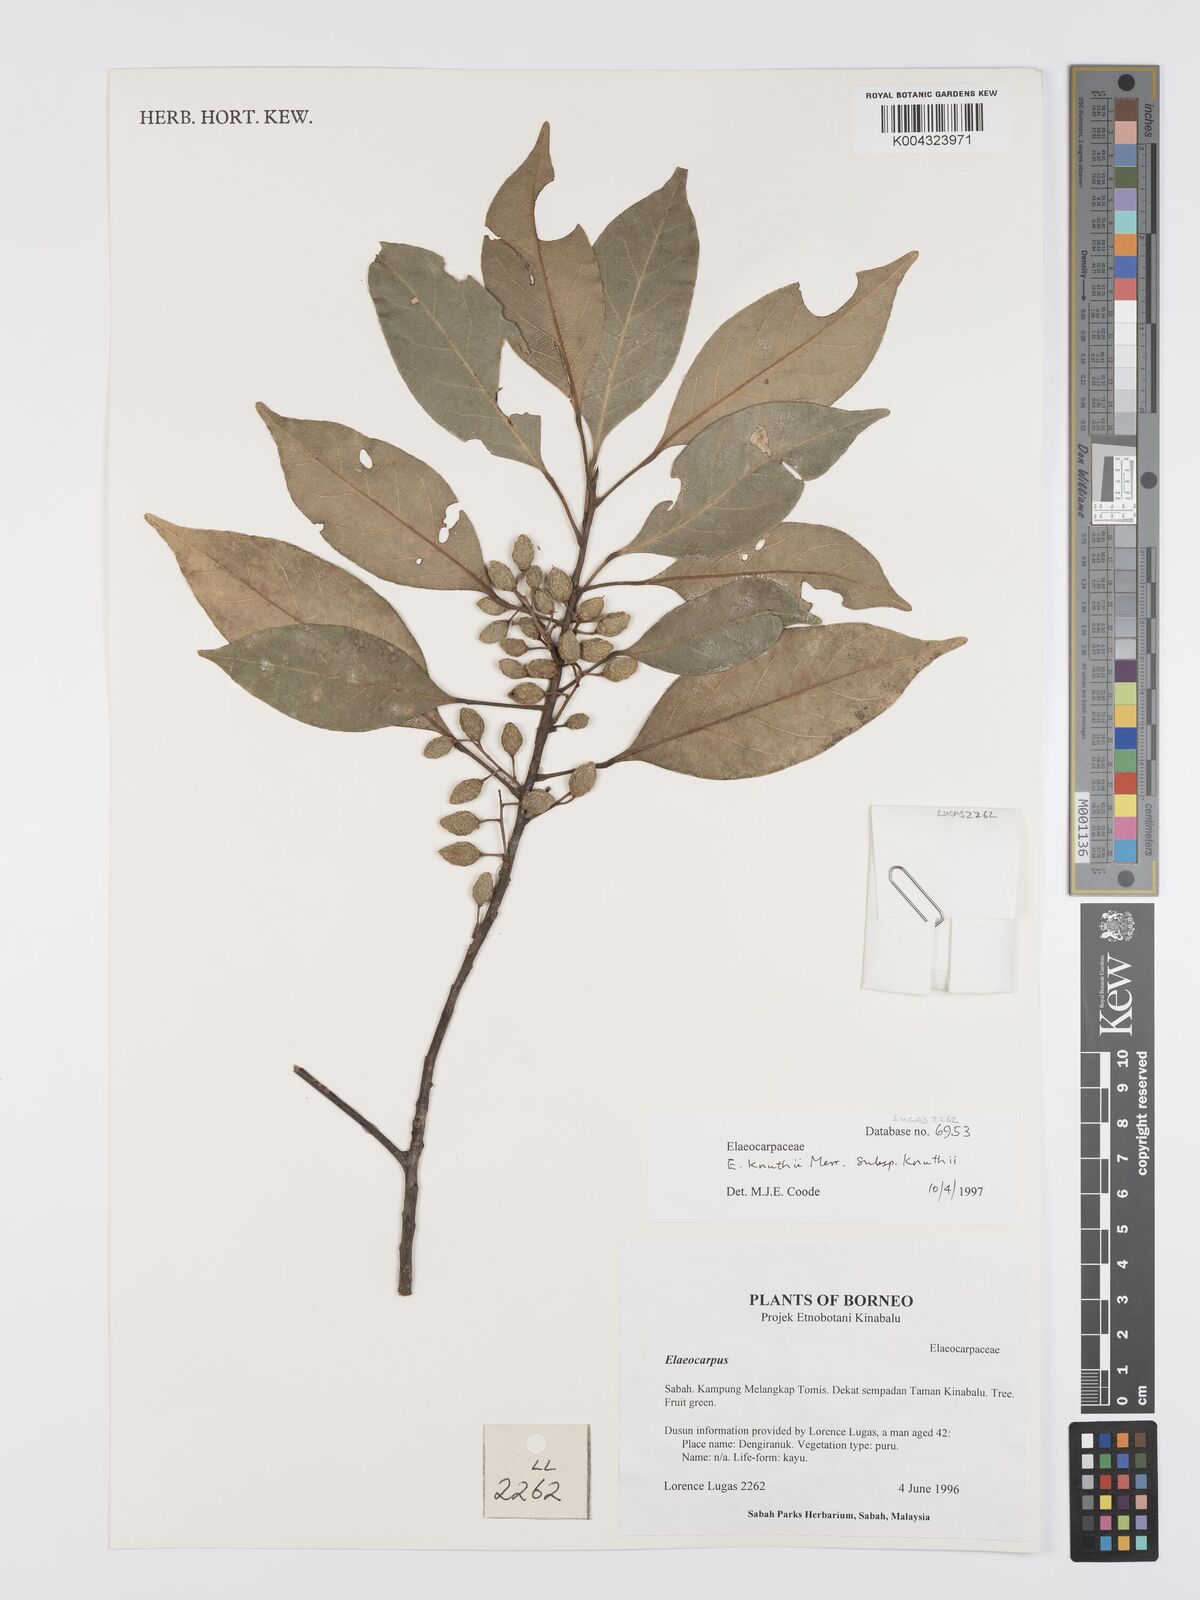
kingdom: Plantae
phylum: Tracheophyta
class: Magnoliopsida
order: Oxalidales
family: Elaeocarpaceae
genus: Elaeocarpus
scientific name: Elaeocarpus knuthii
